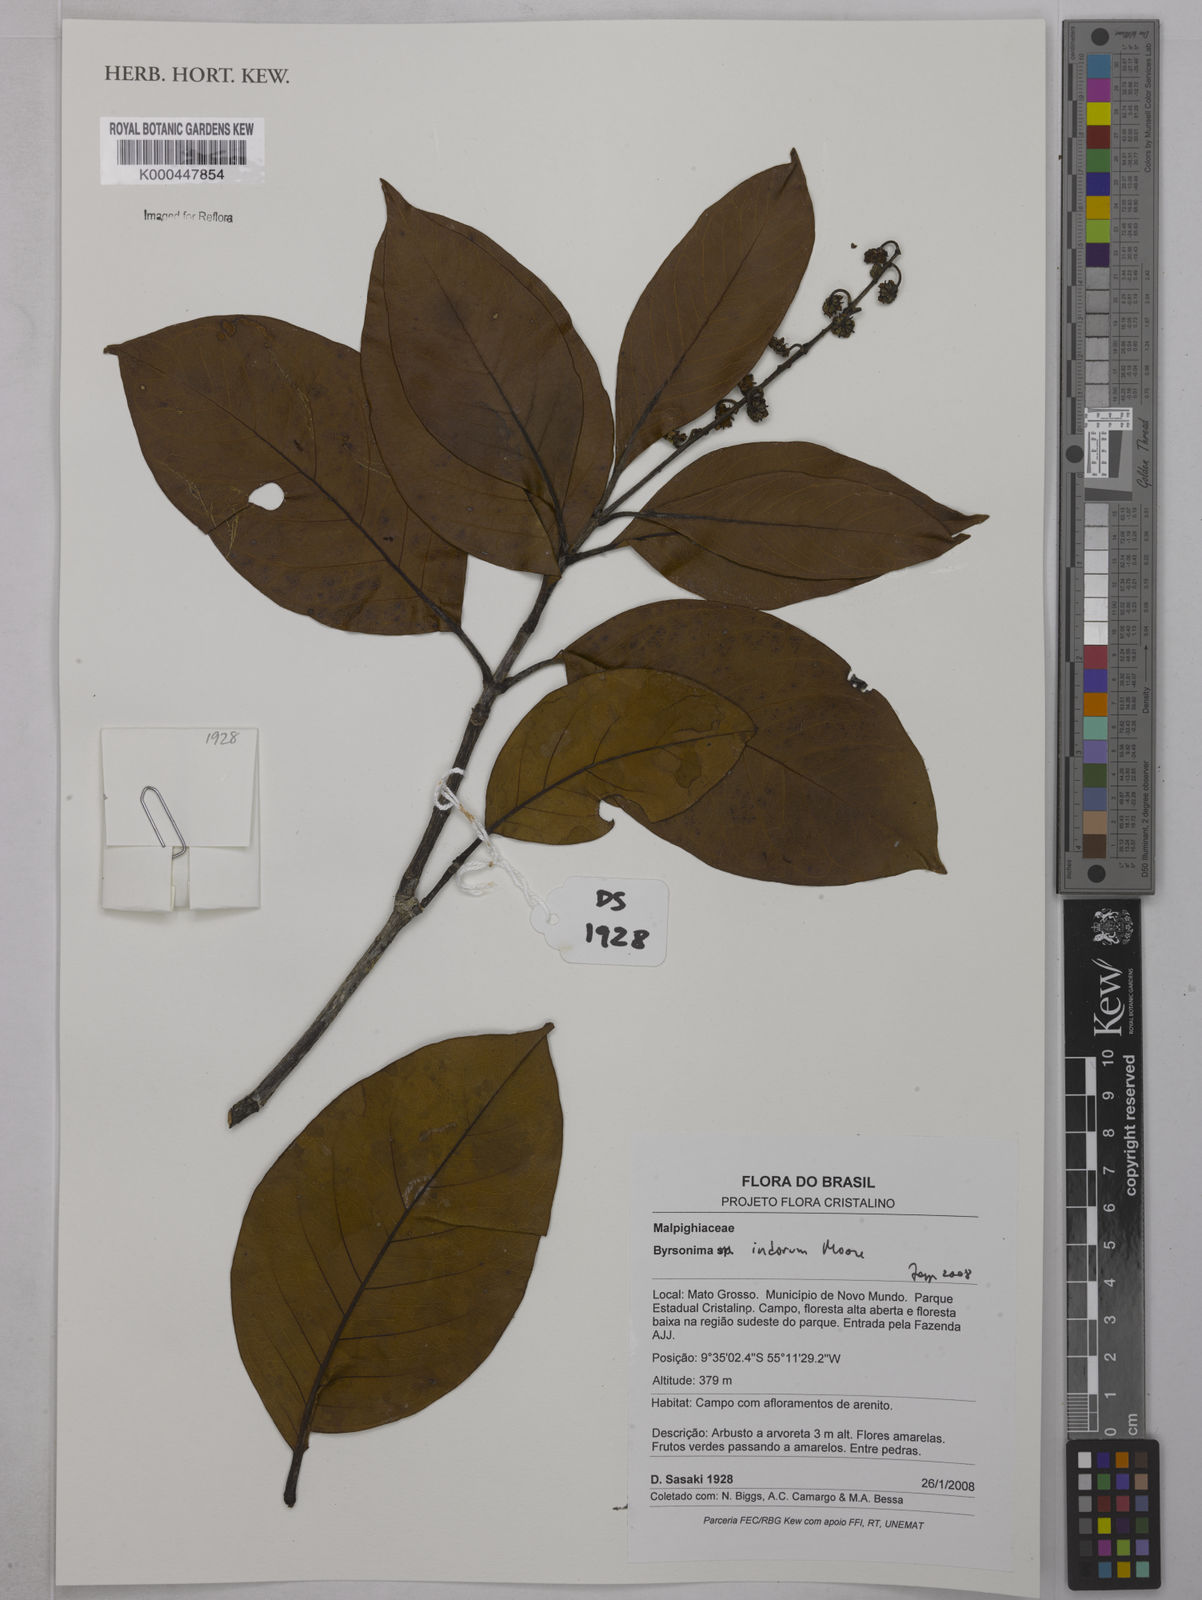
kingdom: Plantae
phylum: Tracheophyta
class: Magnoliopsida
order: Malpighiales
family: Malpighiaceae
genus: Byrsonima
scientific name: Byrsonima arthropoda
